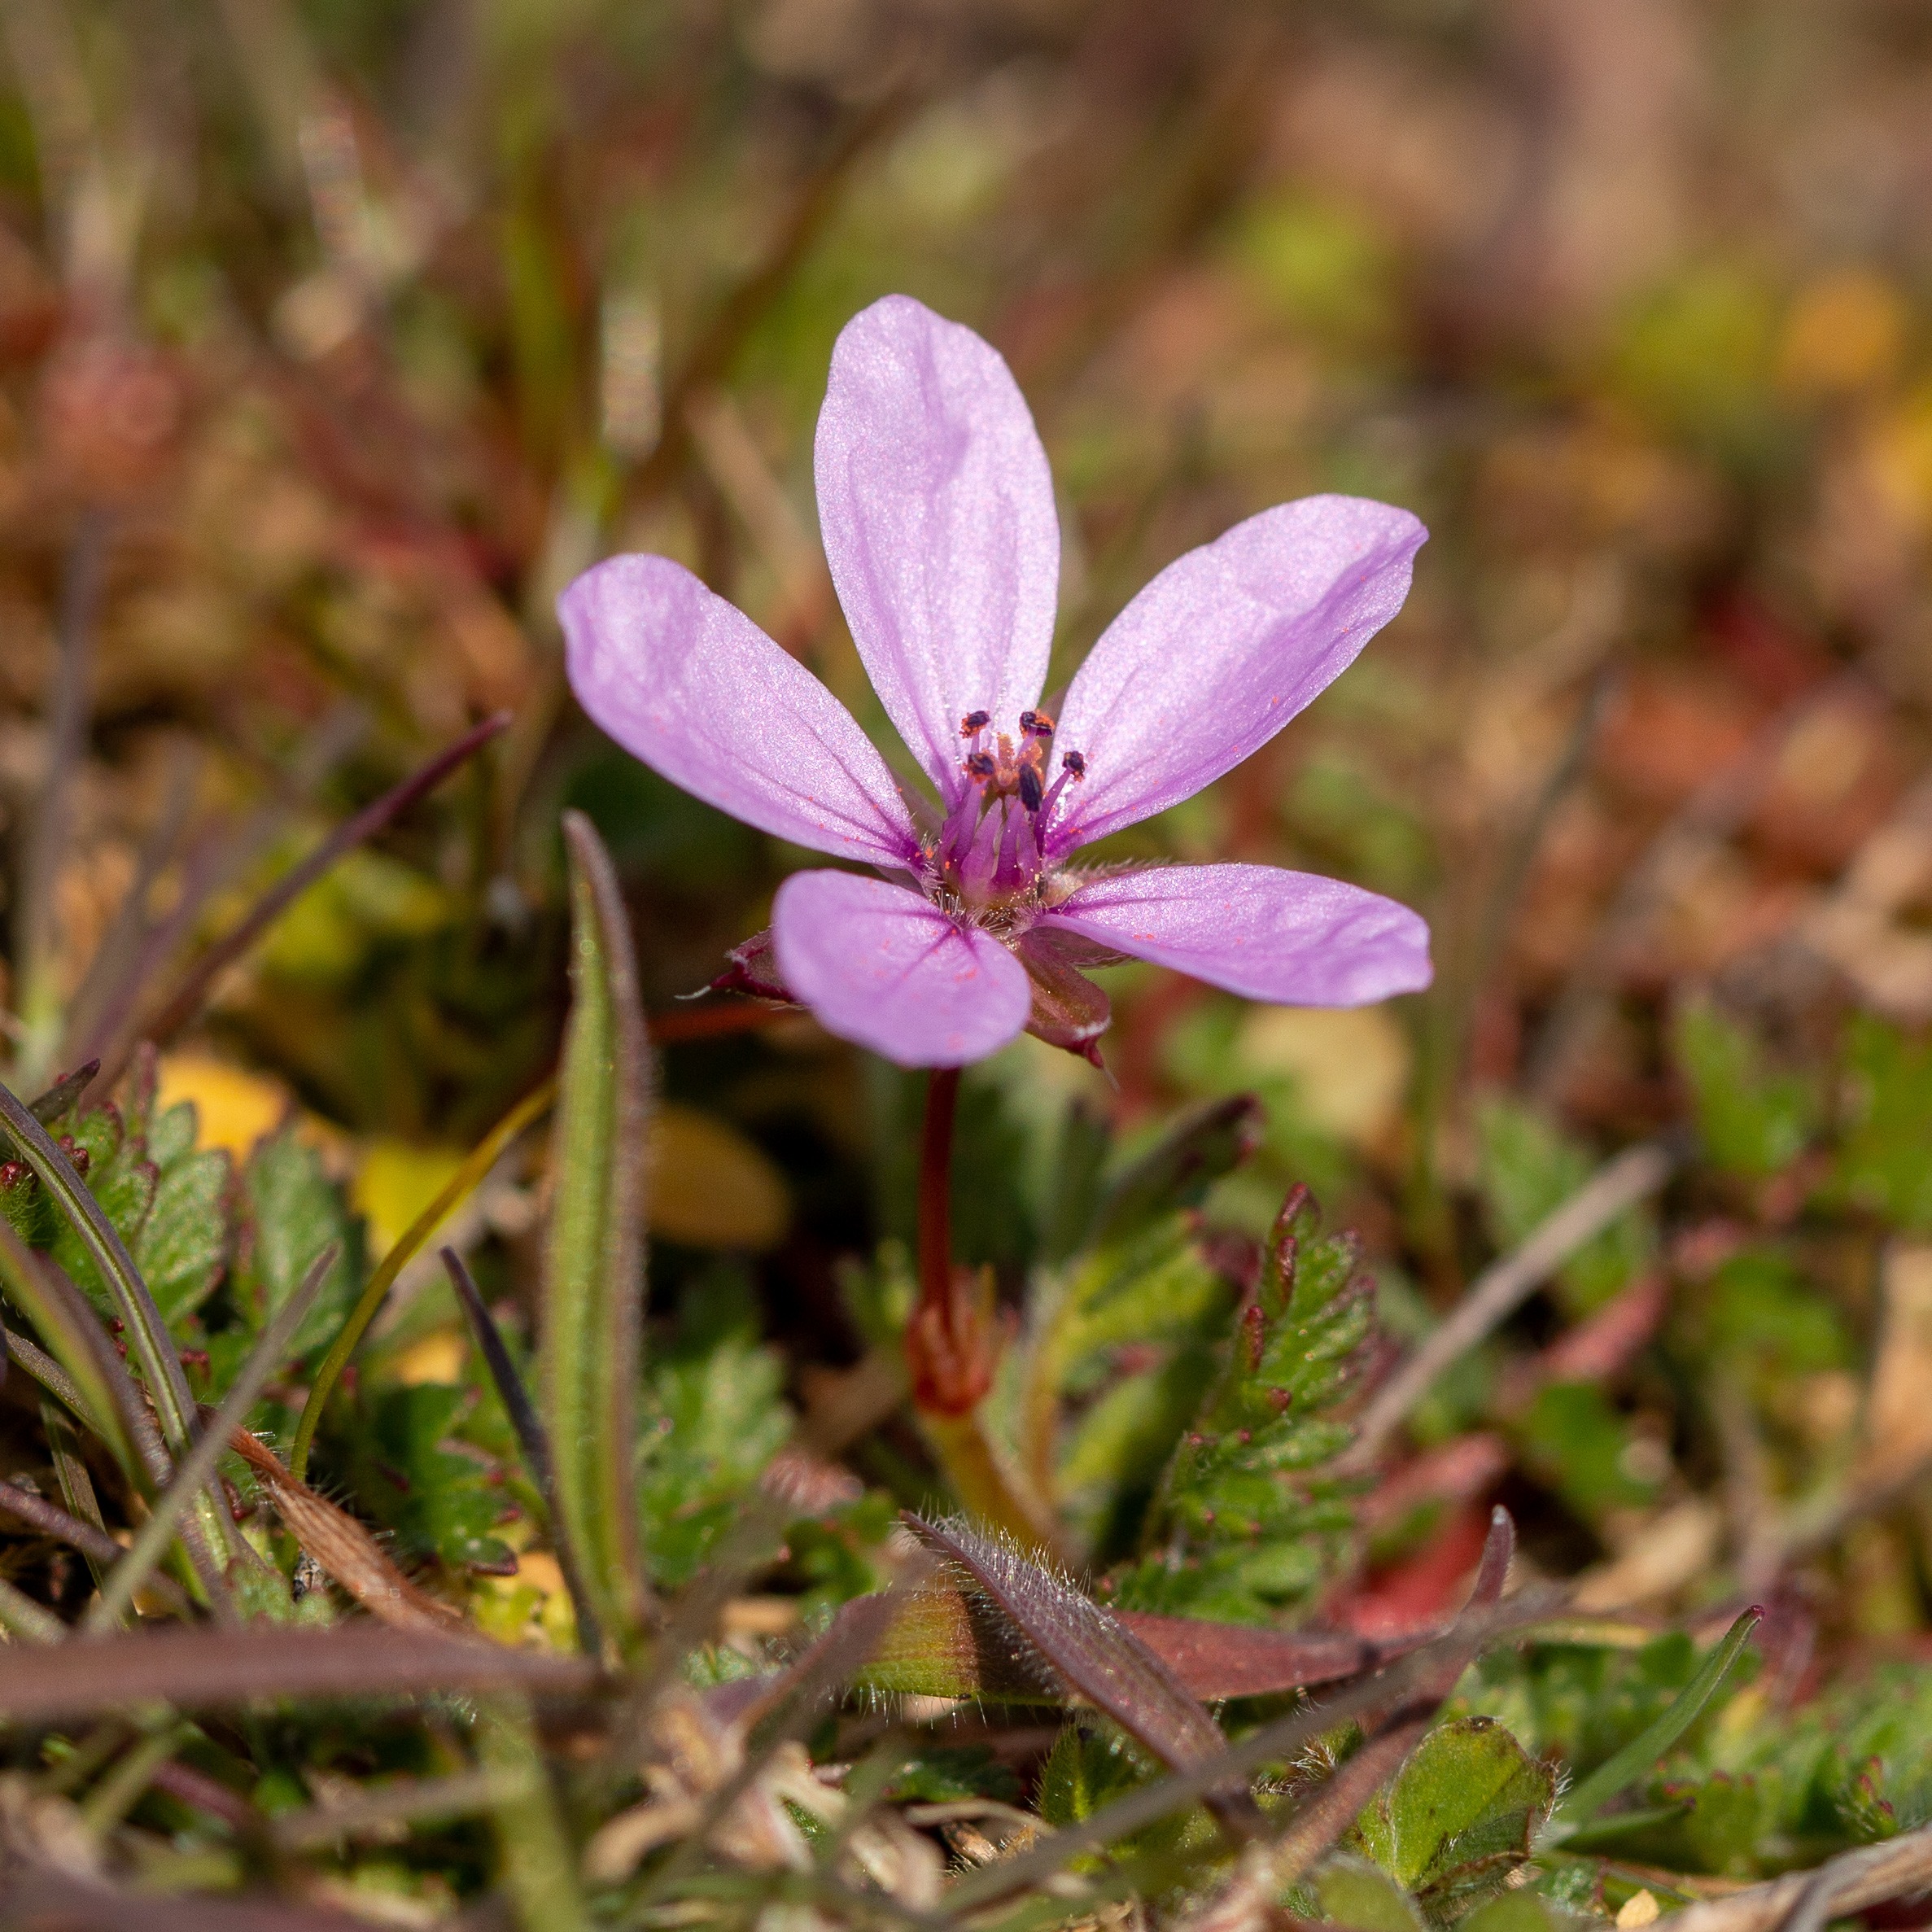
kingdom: Plantae
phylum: Tracheophyta
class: Magnoliopsida
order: Geraniales
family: Geraniaceae
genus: Erodium
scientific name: Erodium cicutarium
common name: Hejrenæb
